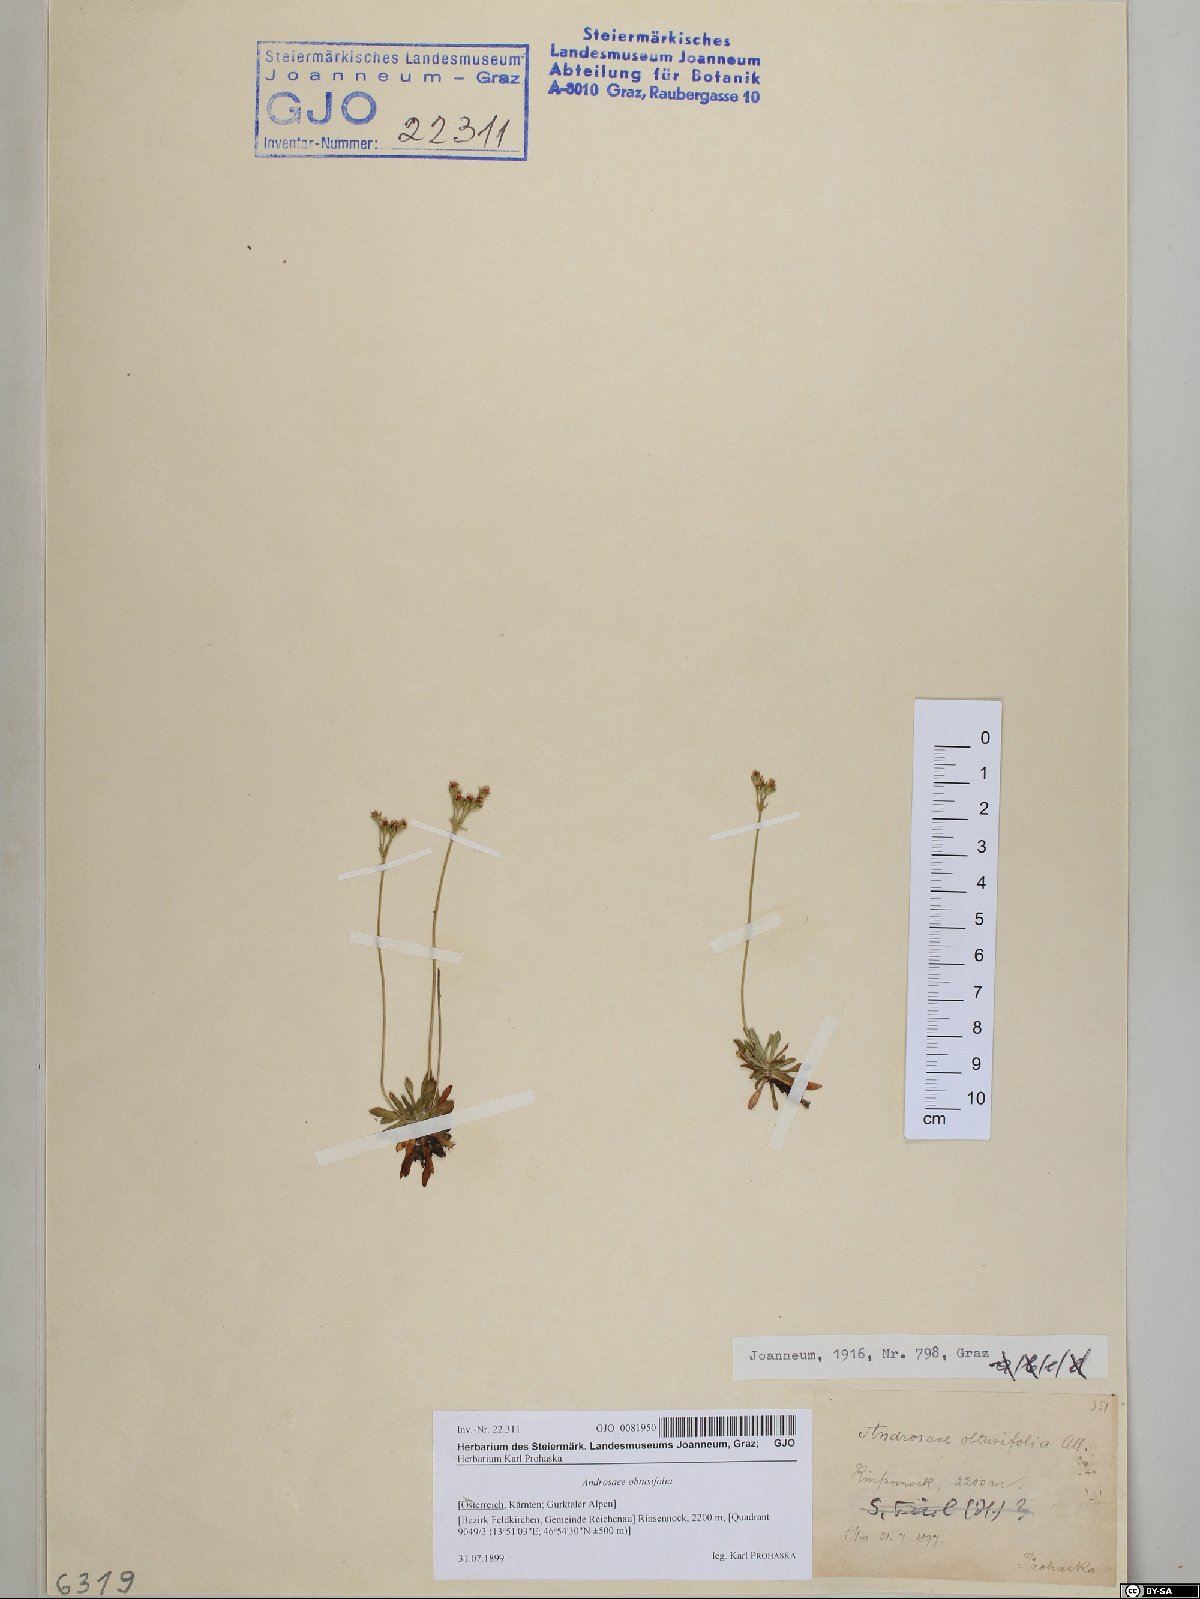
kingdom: Plantae
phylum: Tracheophyta
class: Magnoliopsida
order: Ericales
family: Primulaceae
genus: Androsace
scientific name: Androsace obtusifolia
